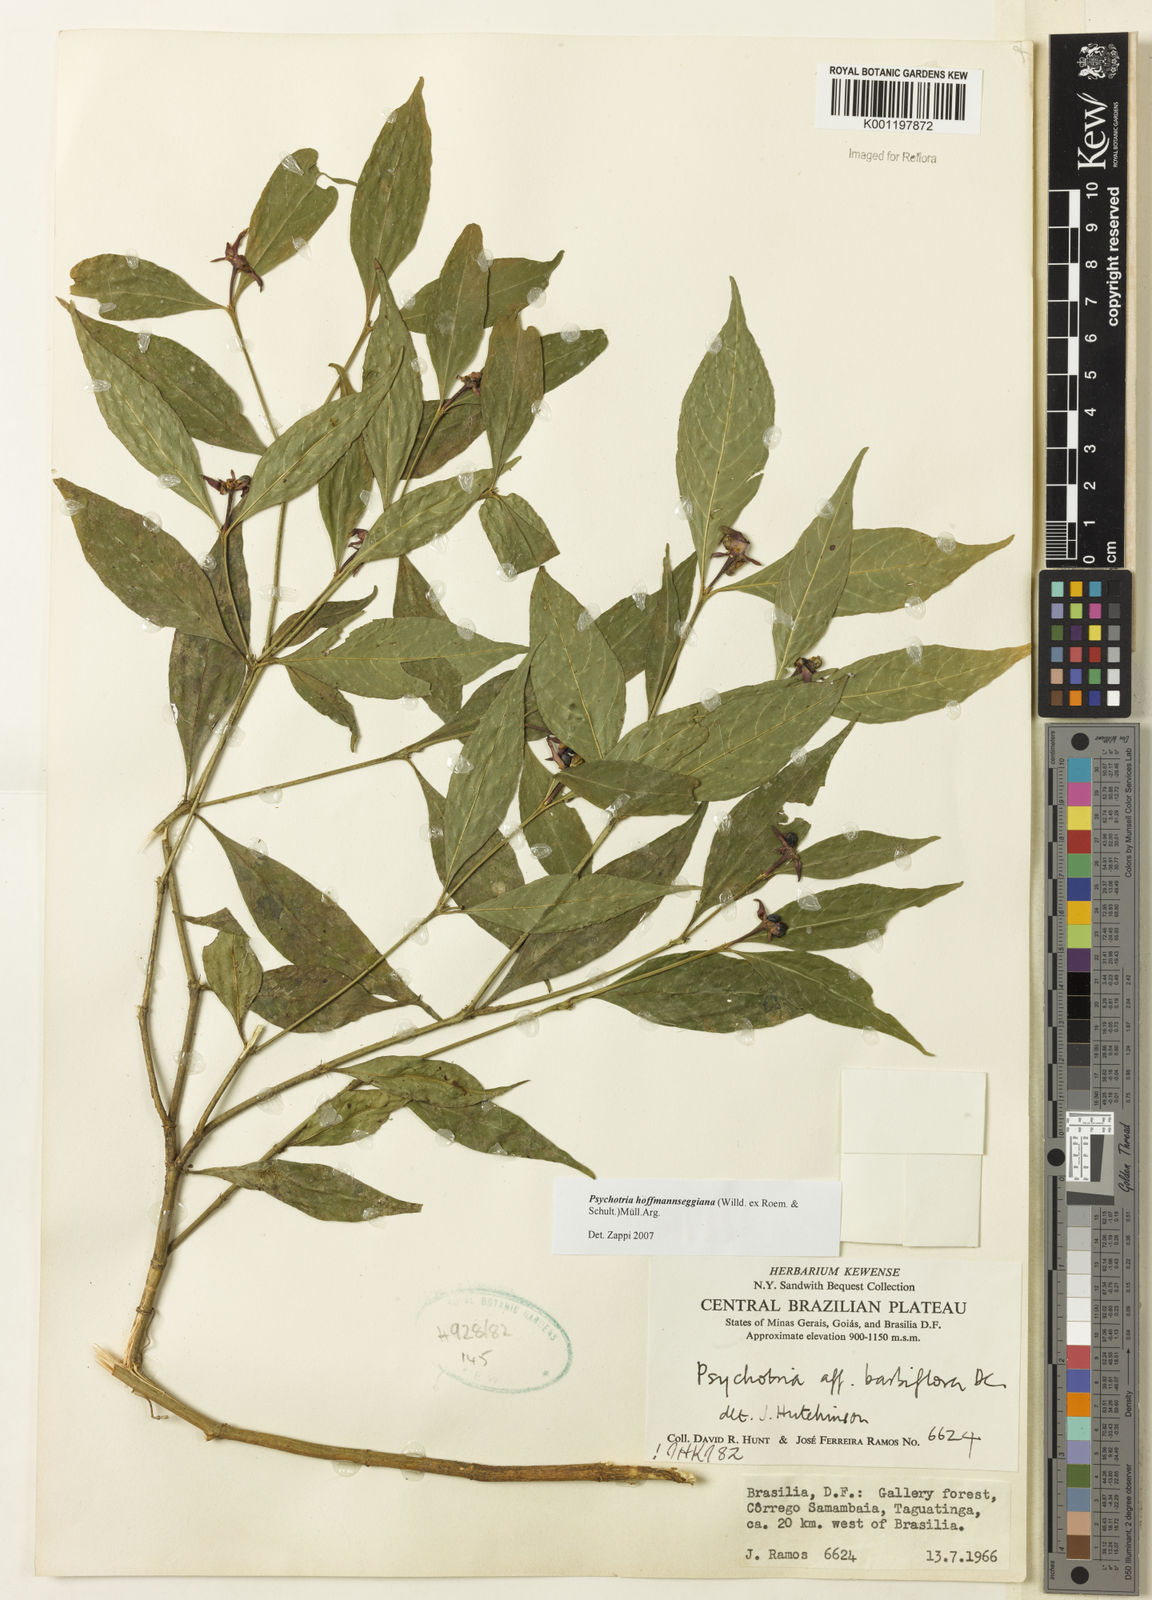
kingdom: Plantae
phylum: Tracheophyta
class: Magnoliopsida
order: Gentianales
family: Rubiaceae
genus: Psychotria
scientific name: Psychotria
